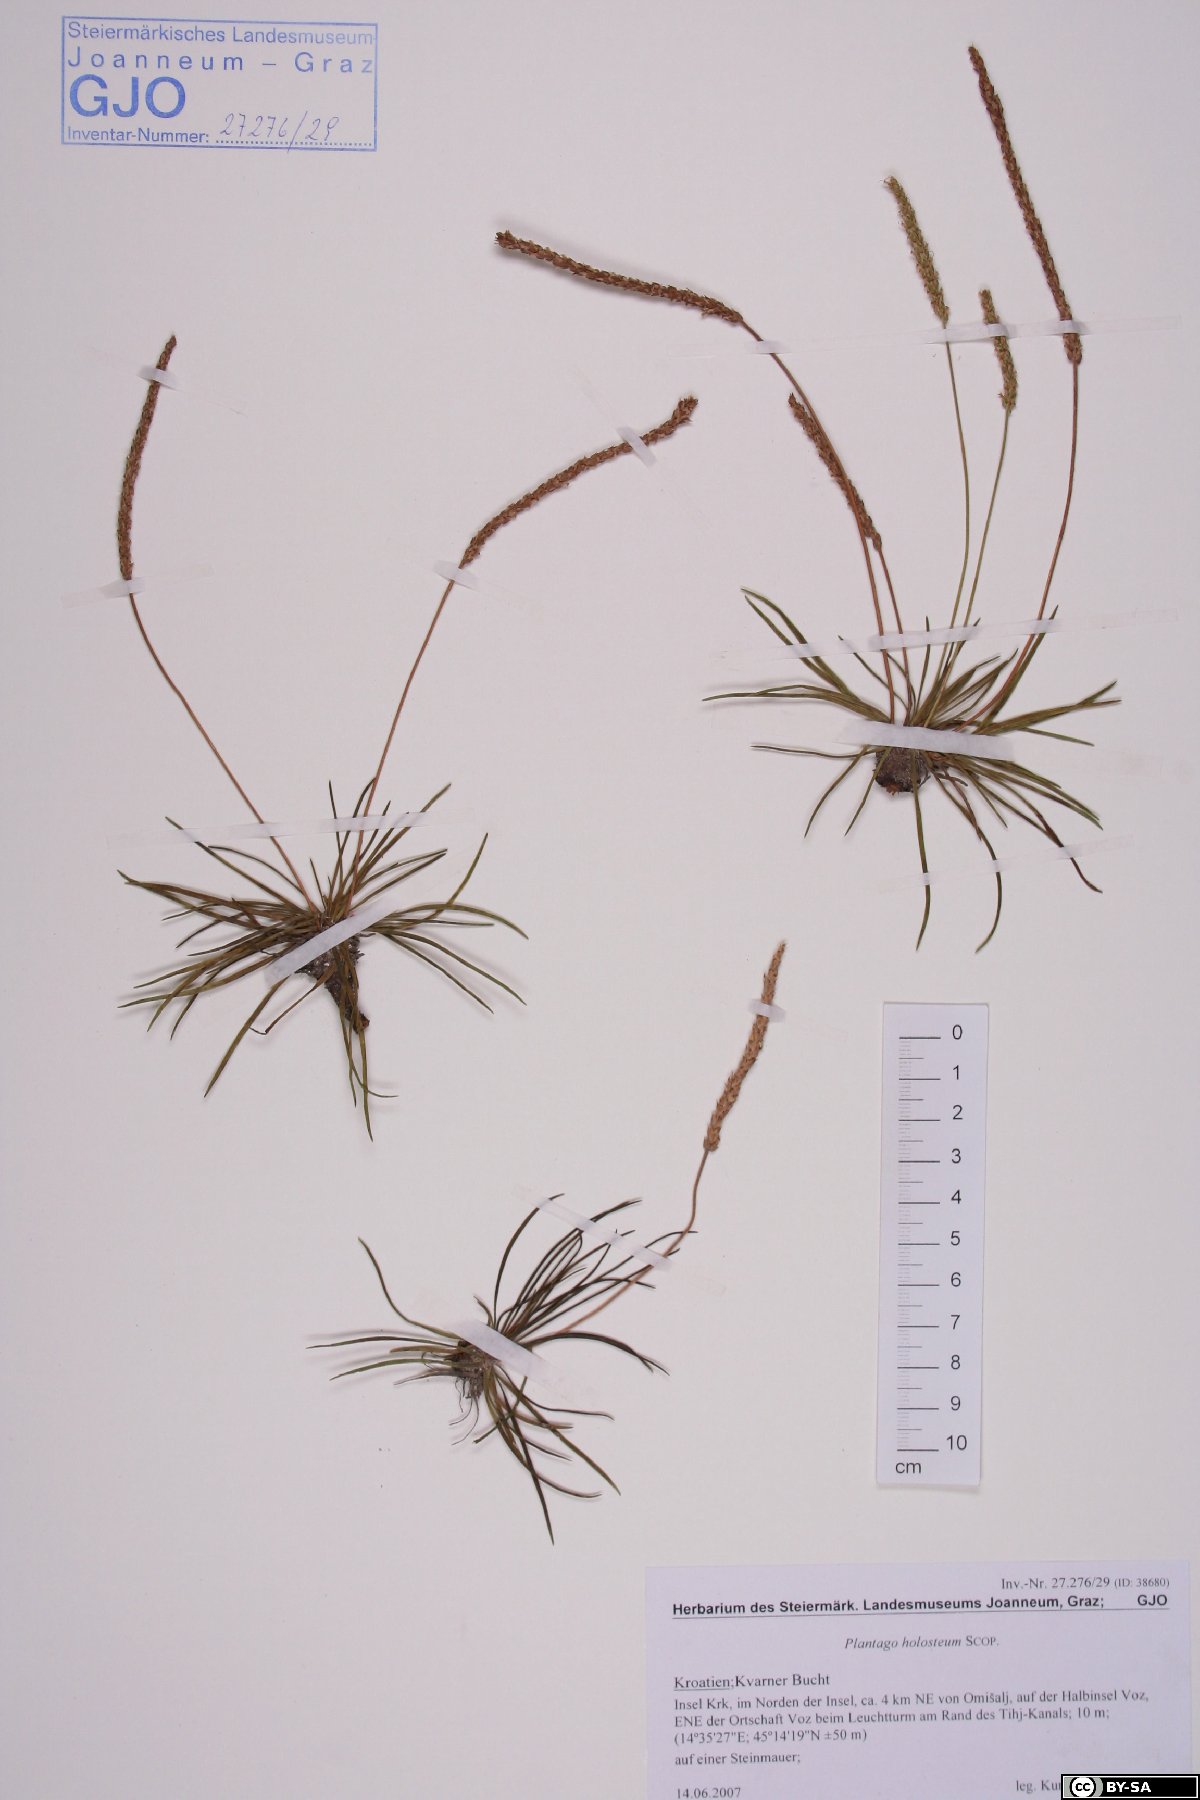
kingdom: Plantae
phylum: Tracheophyta
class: Magnoliopsida
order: Lamiales
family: Plantaginaceae
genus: Plantago
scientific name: Plantago subulata
